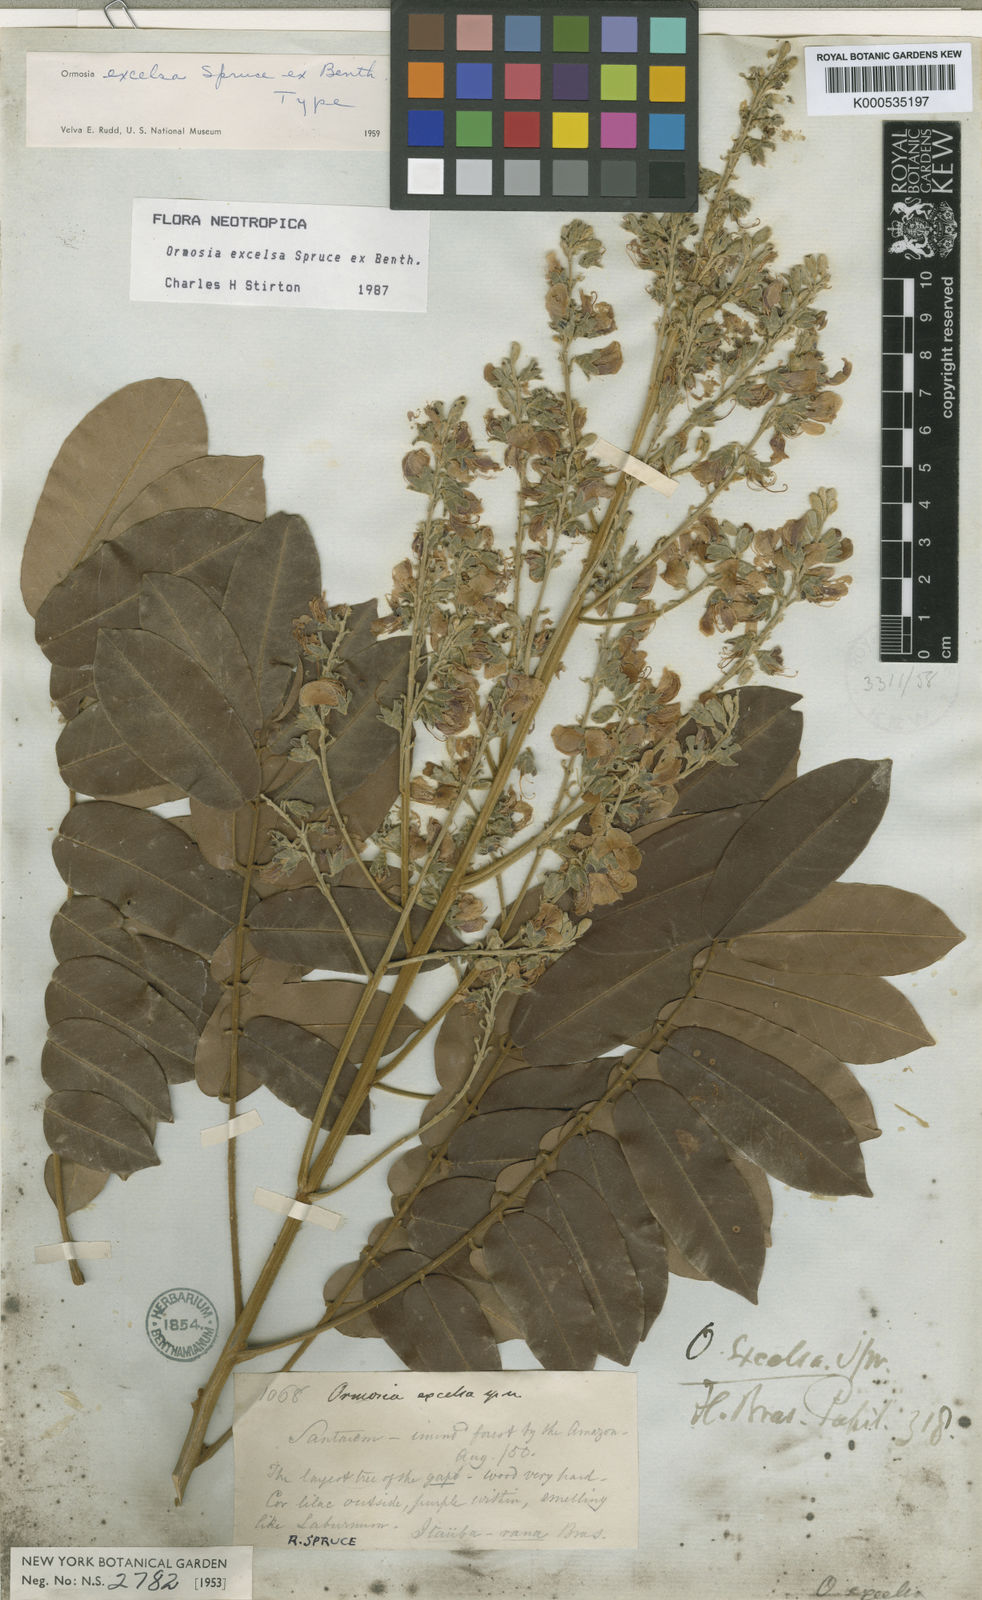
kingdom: Plantae
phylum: Tracheophyta
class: Magnoliopsida
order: Fabales
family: Fabaceae
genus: Ormosia
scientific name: Ormosia excelsa
